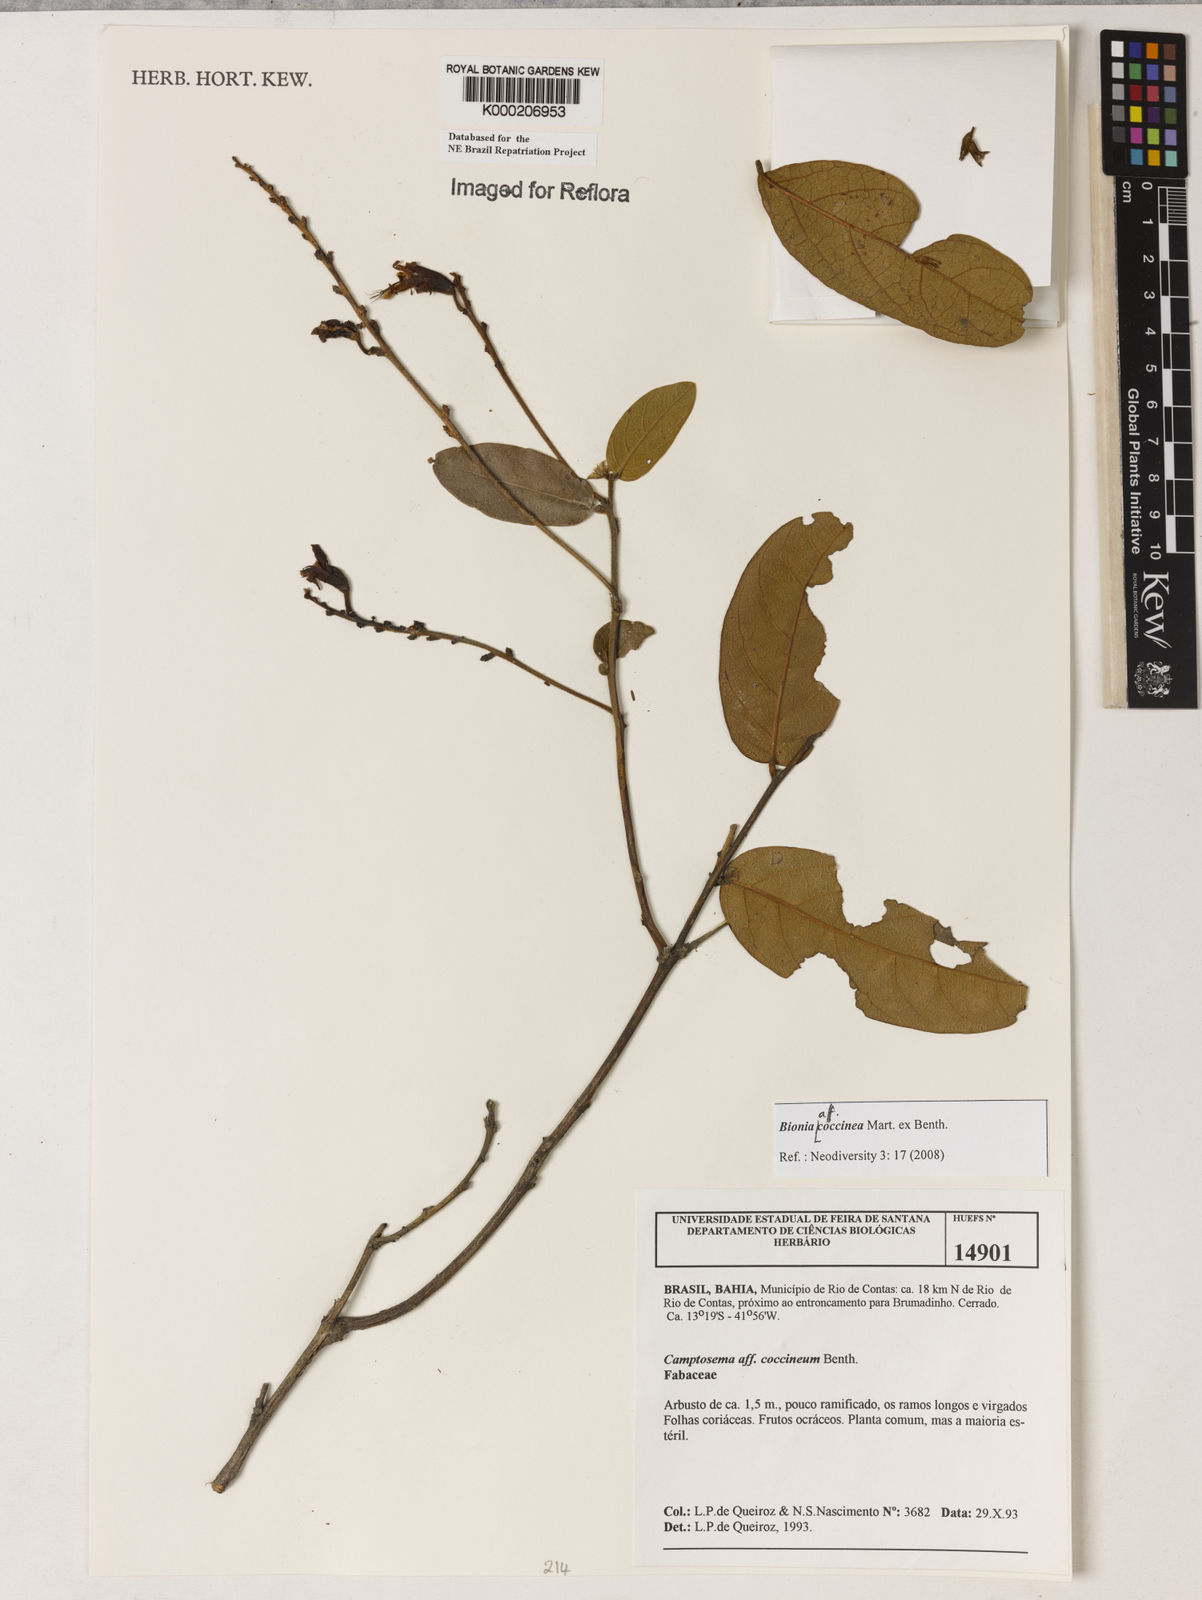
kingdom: Plantae
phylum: Tracheophyta
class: Magnoliopsida
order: Fabales
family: Fabaceae
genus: Camptosema
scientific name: Camptosema coccineum
